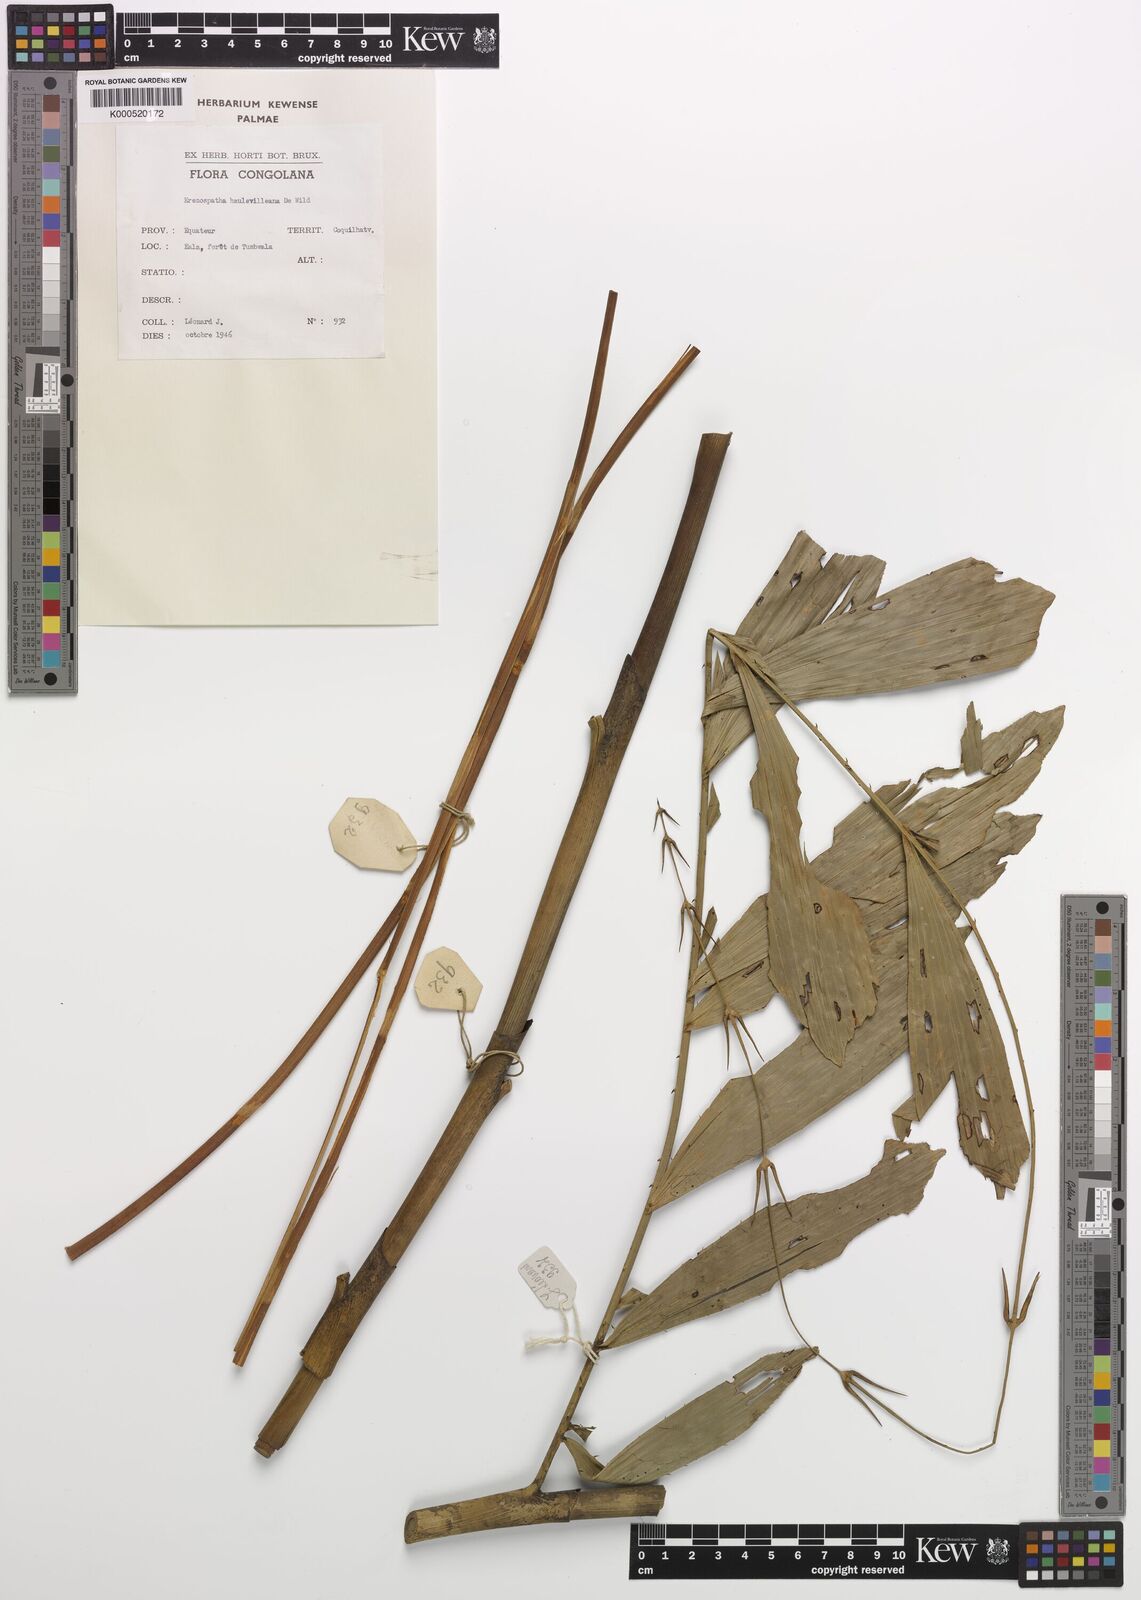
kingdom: Plantae
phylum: Tracheophyta
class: Liliopsida
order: Arecales
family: Arecaceae
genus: Eremospatha
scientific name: Eremospatha haullevilleana
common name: Rattan
